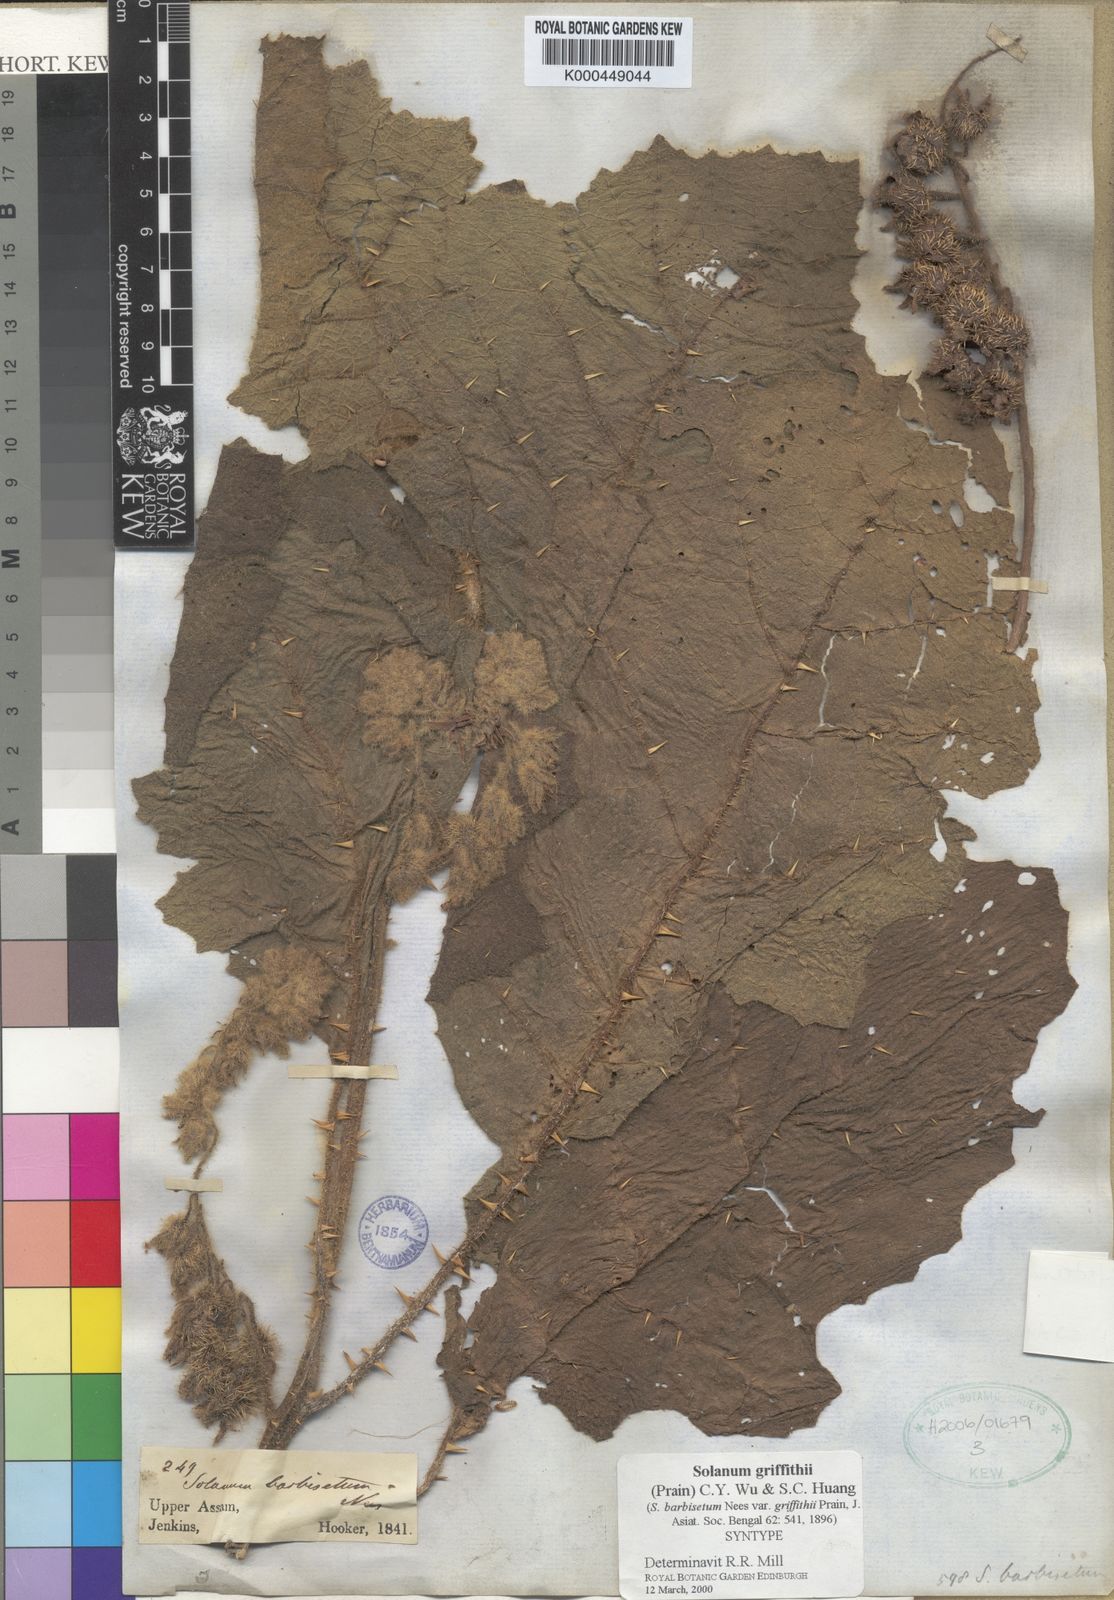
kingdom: Plantae
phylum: Tracheophyta
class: Magnoliopsida
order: Solanales
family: Solanaceae
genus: Solanum
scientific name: Solanum praetermissum
